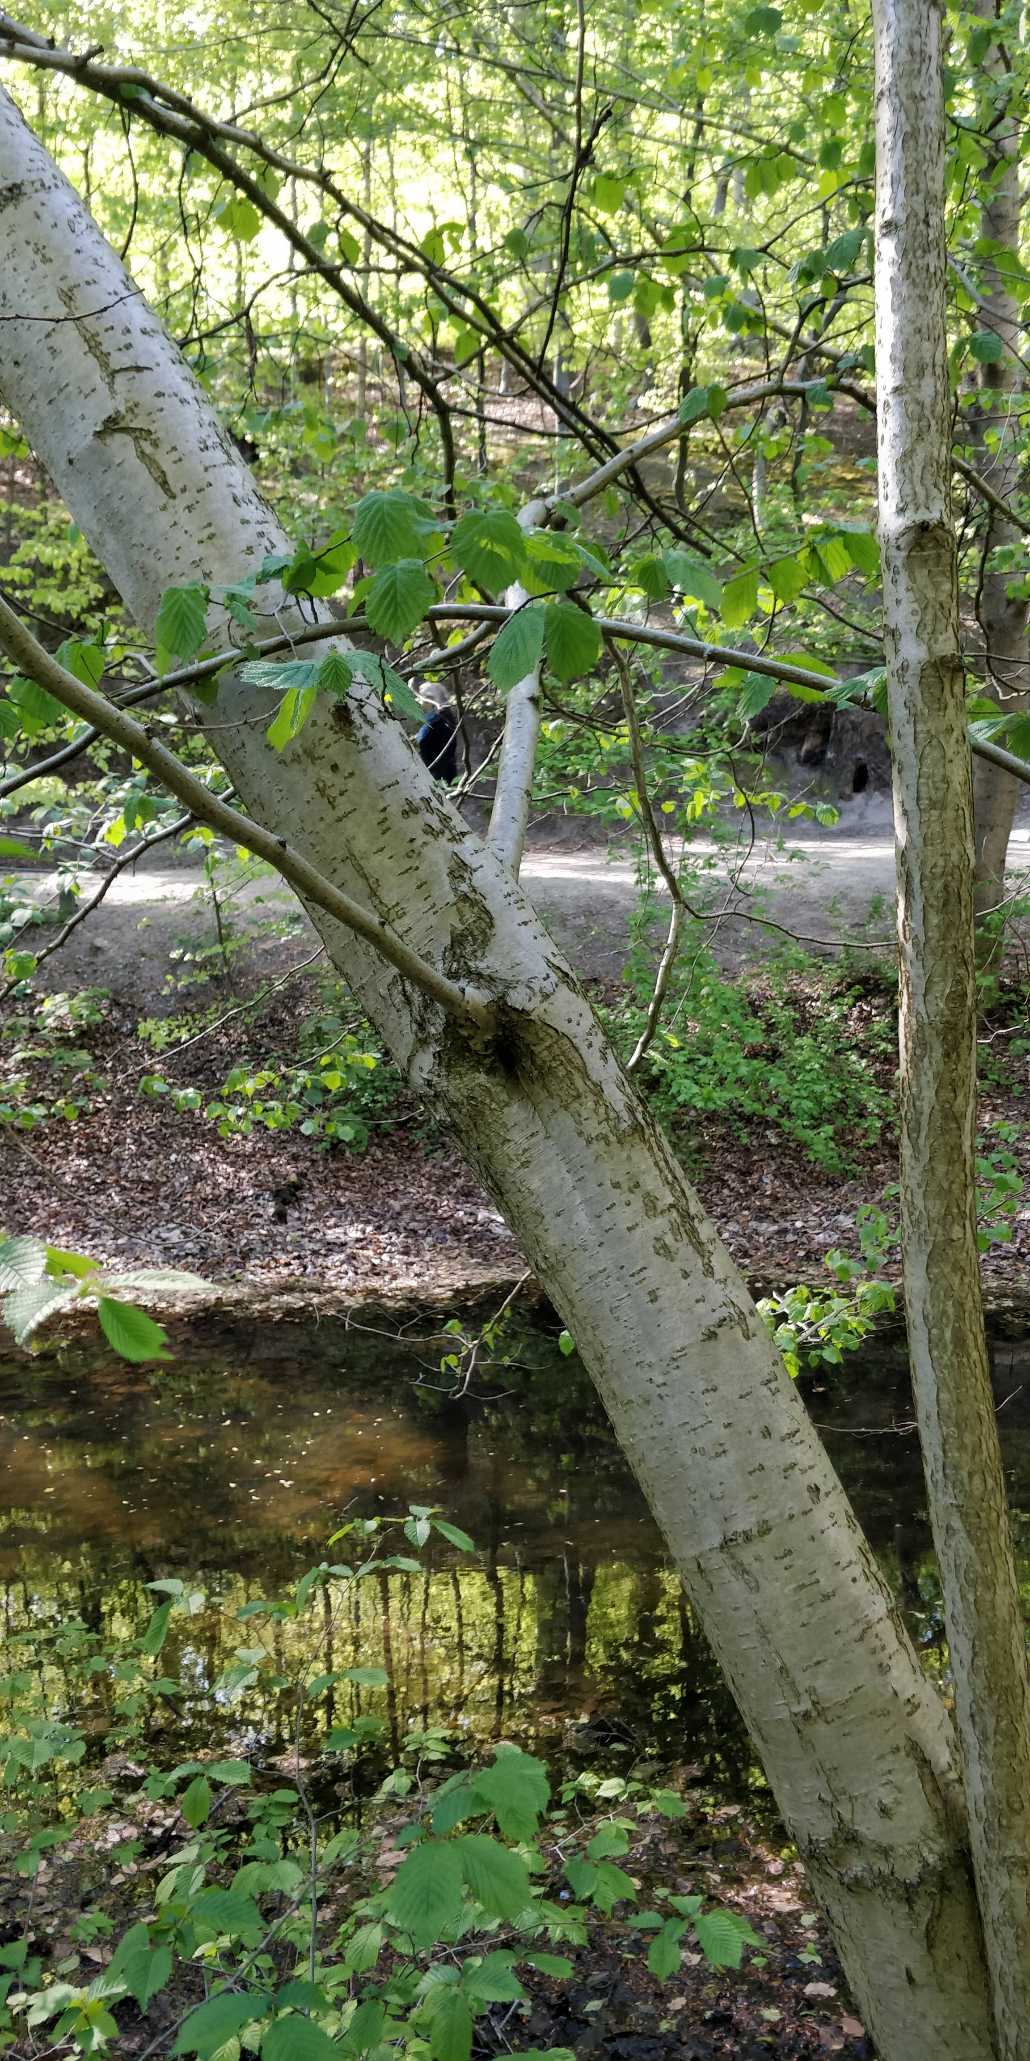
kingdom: Plantae
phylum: Tracheophyta
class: Magnoliopsida
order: Fagales
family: Betulaceae
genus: Corylus
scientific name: Corylus avellana
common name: Hassel
